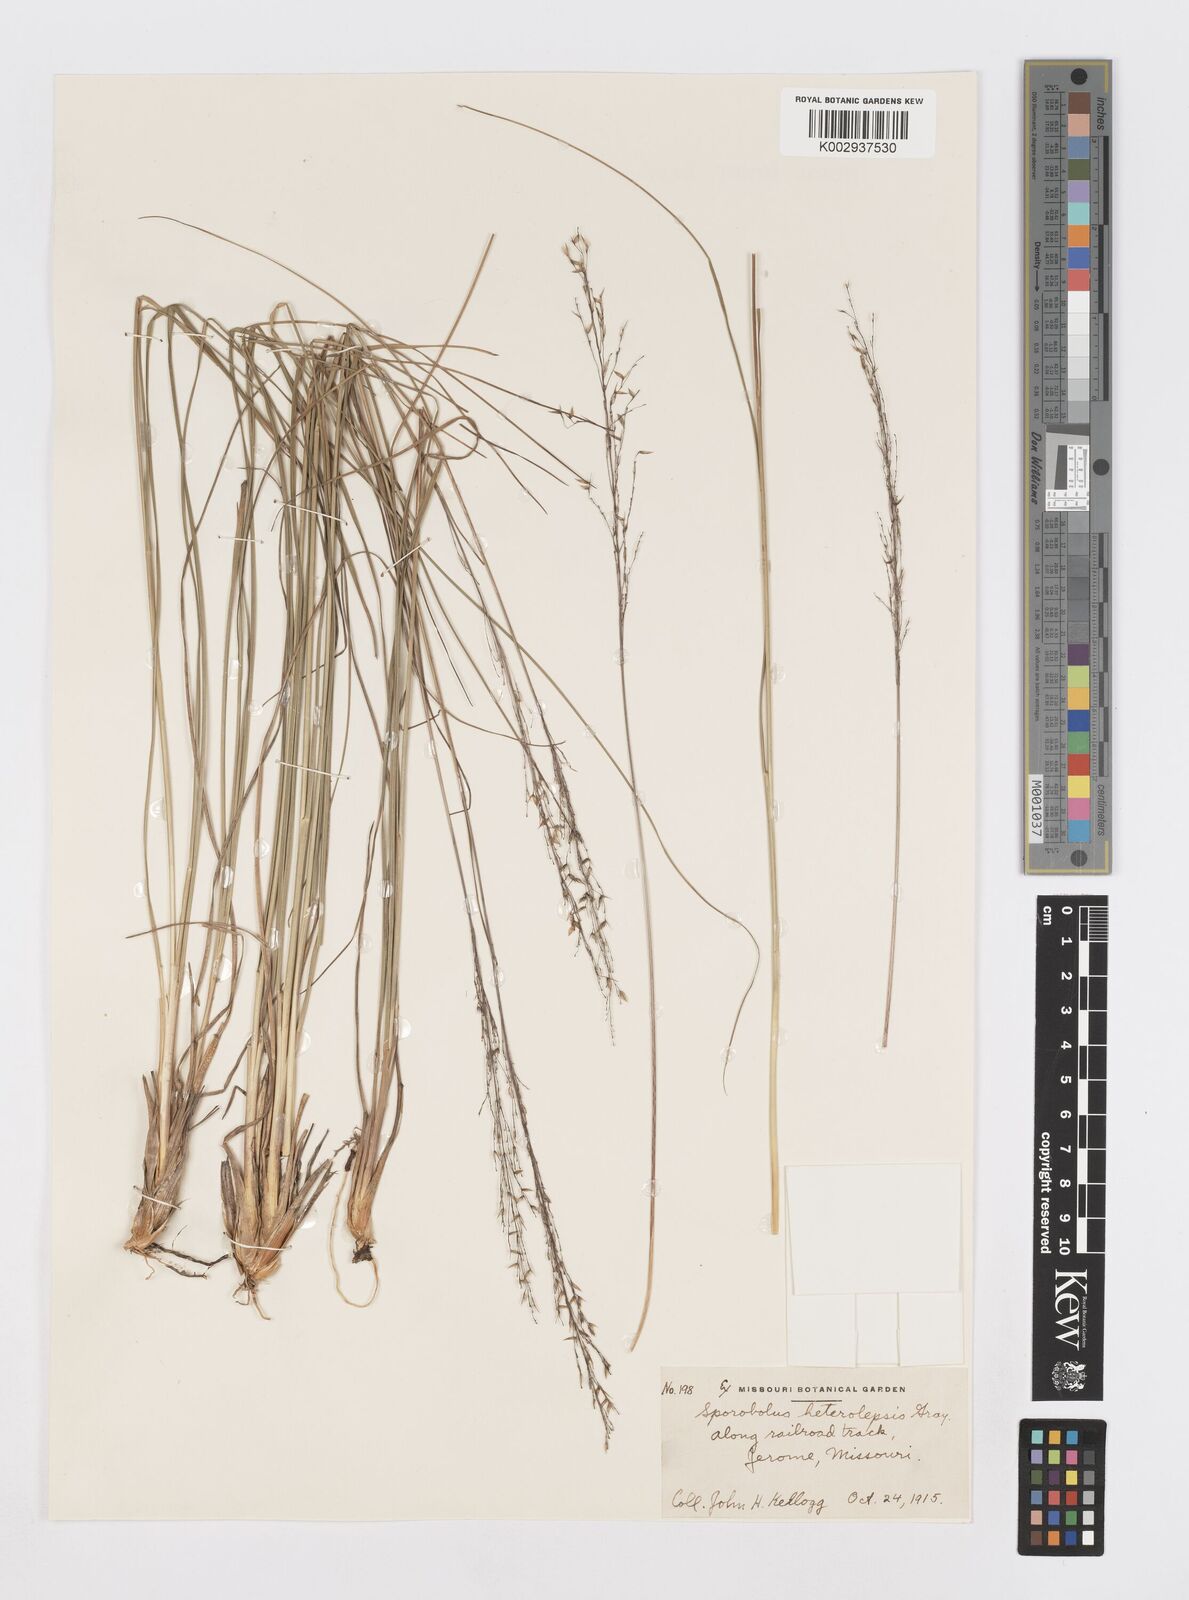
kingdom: Plantae
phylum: Tracheophyta
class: Liliopsida
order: Poales
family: Poaceae
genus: Sporobolus
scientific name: Sporobolus heterolepis
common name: Prairie dropseed
